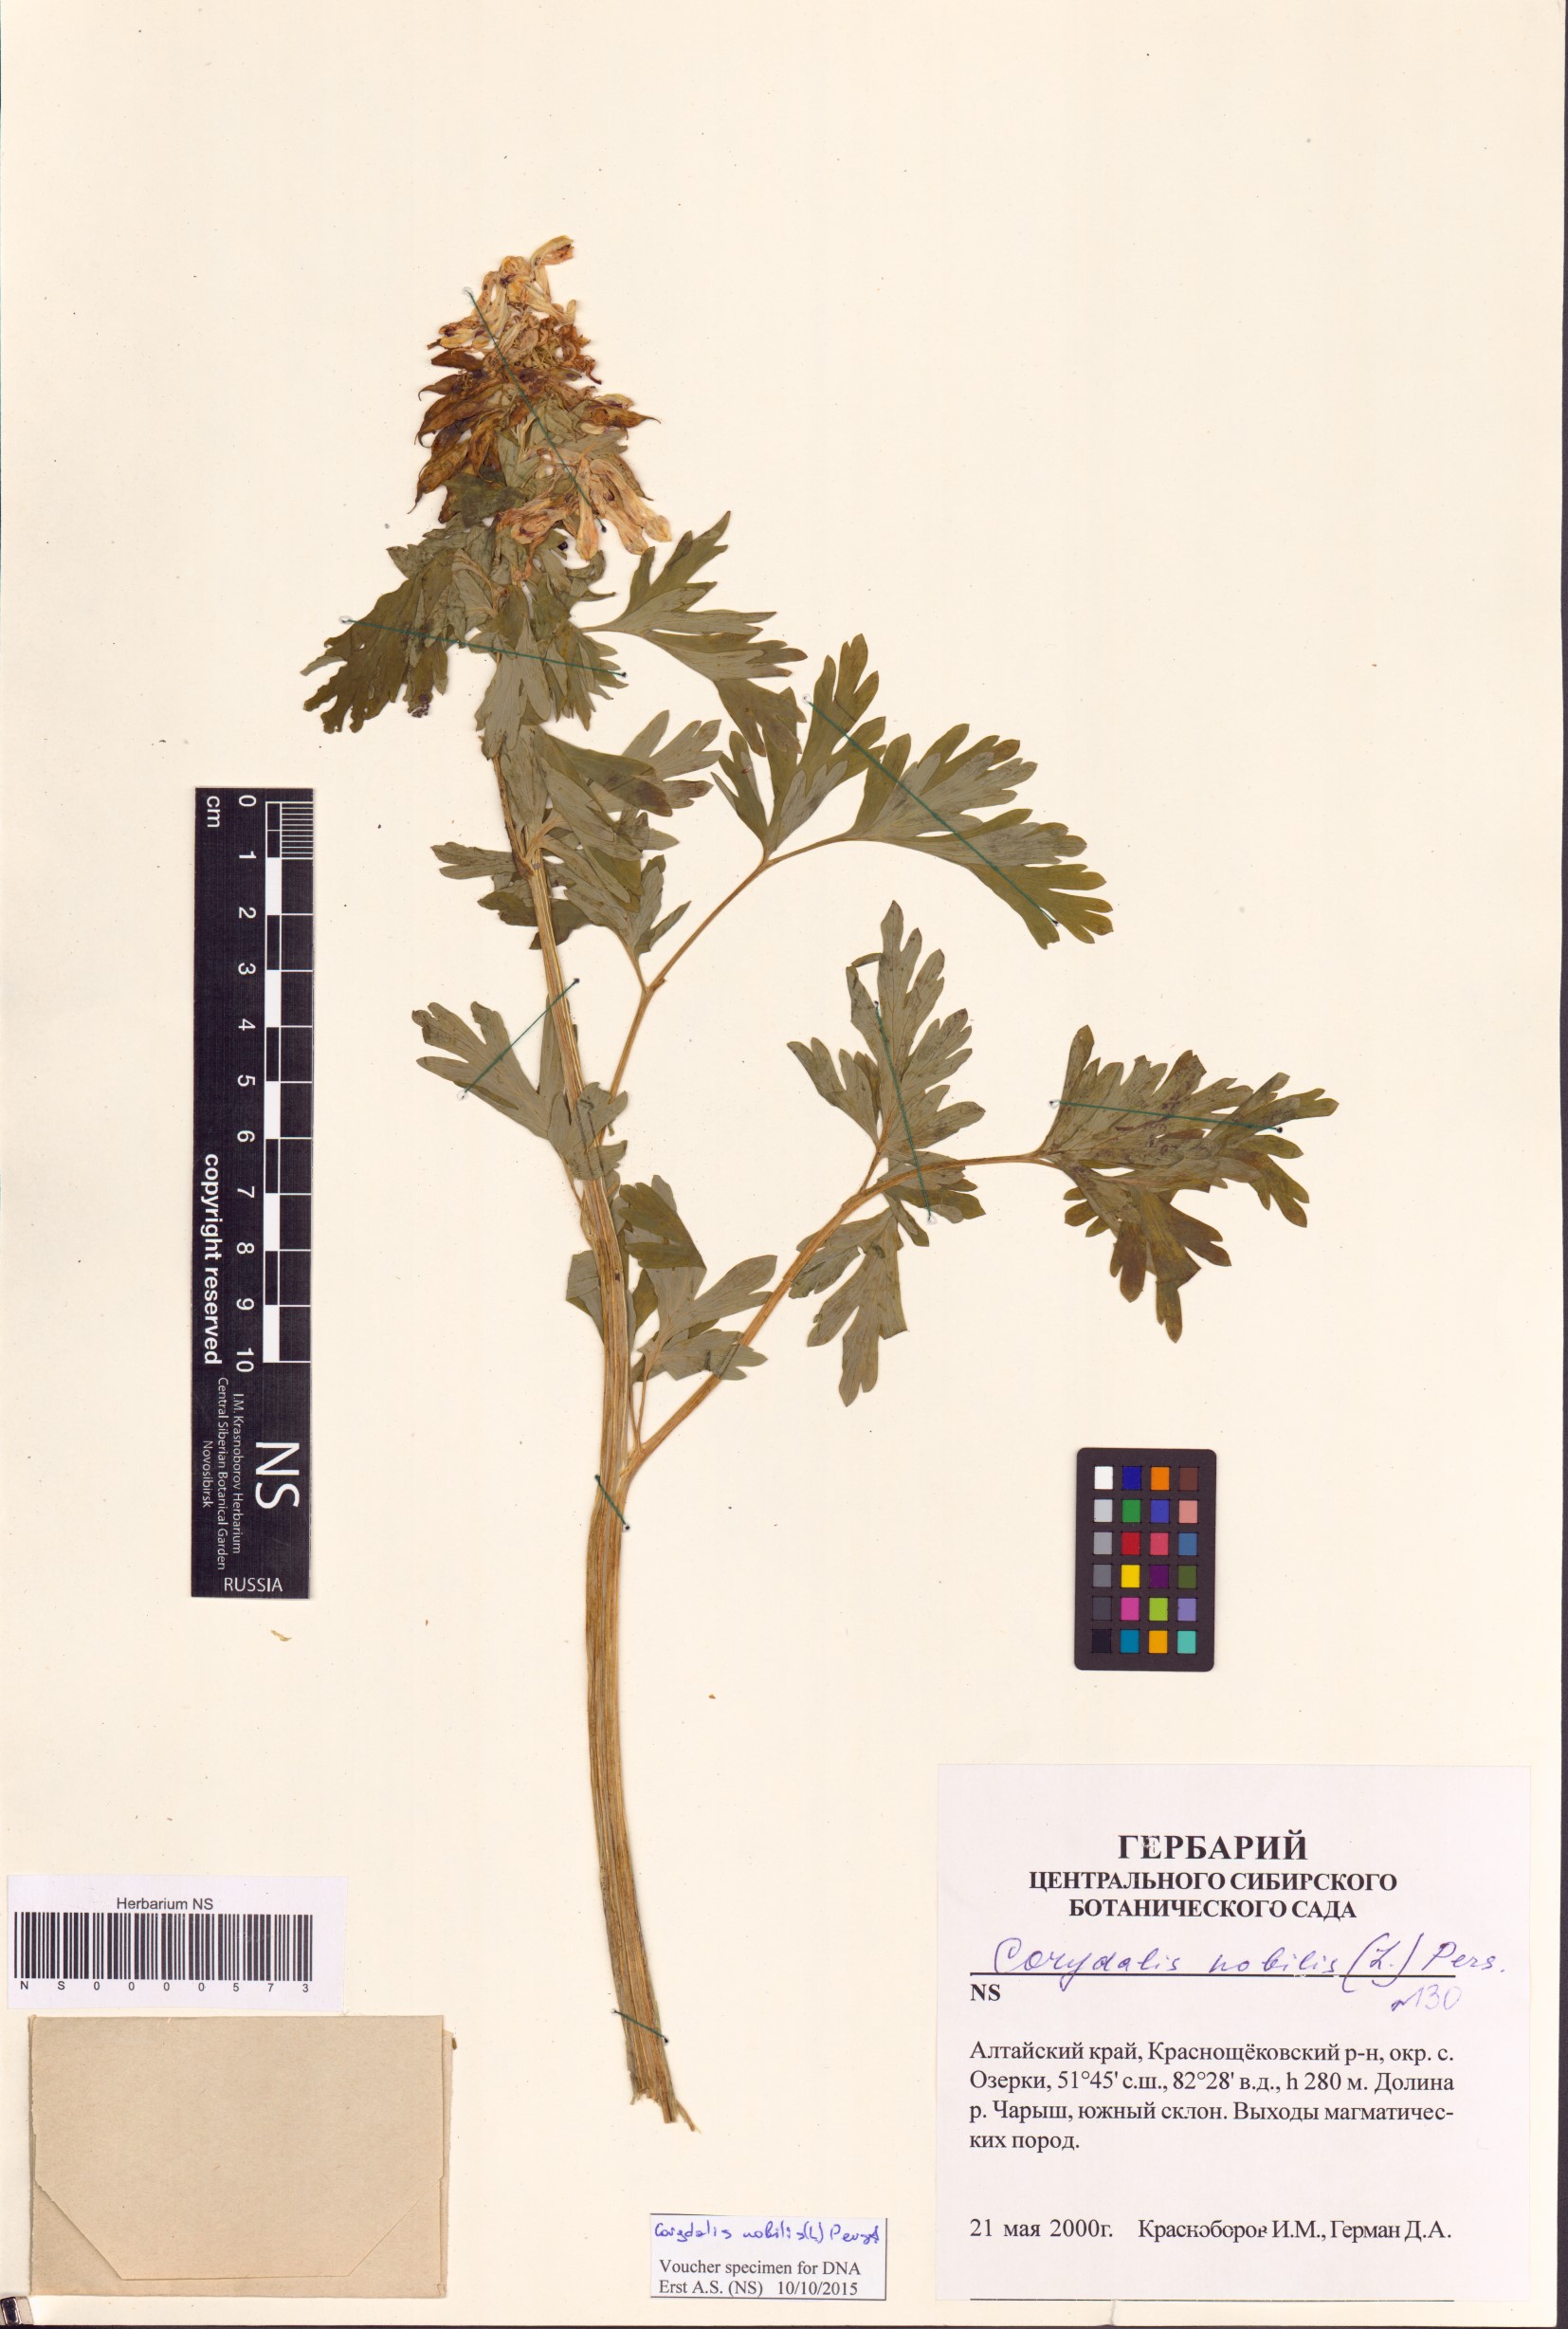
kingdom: Plantae
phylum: Tracheophyta
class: Magnoliopsida
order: Ranunculales
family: Papaveraceae
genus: Corydalis
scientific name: Corydalis nobilis
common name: Siberian corydalis
